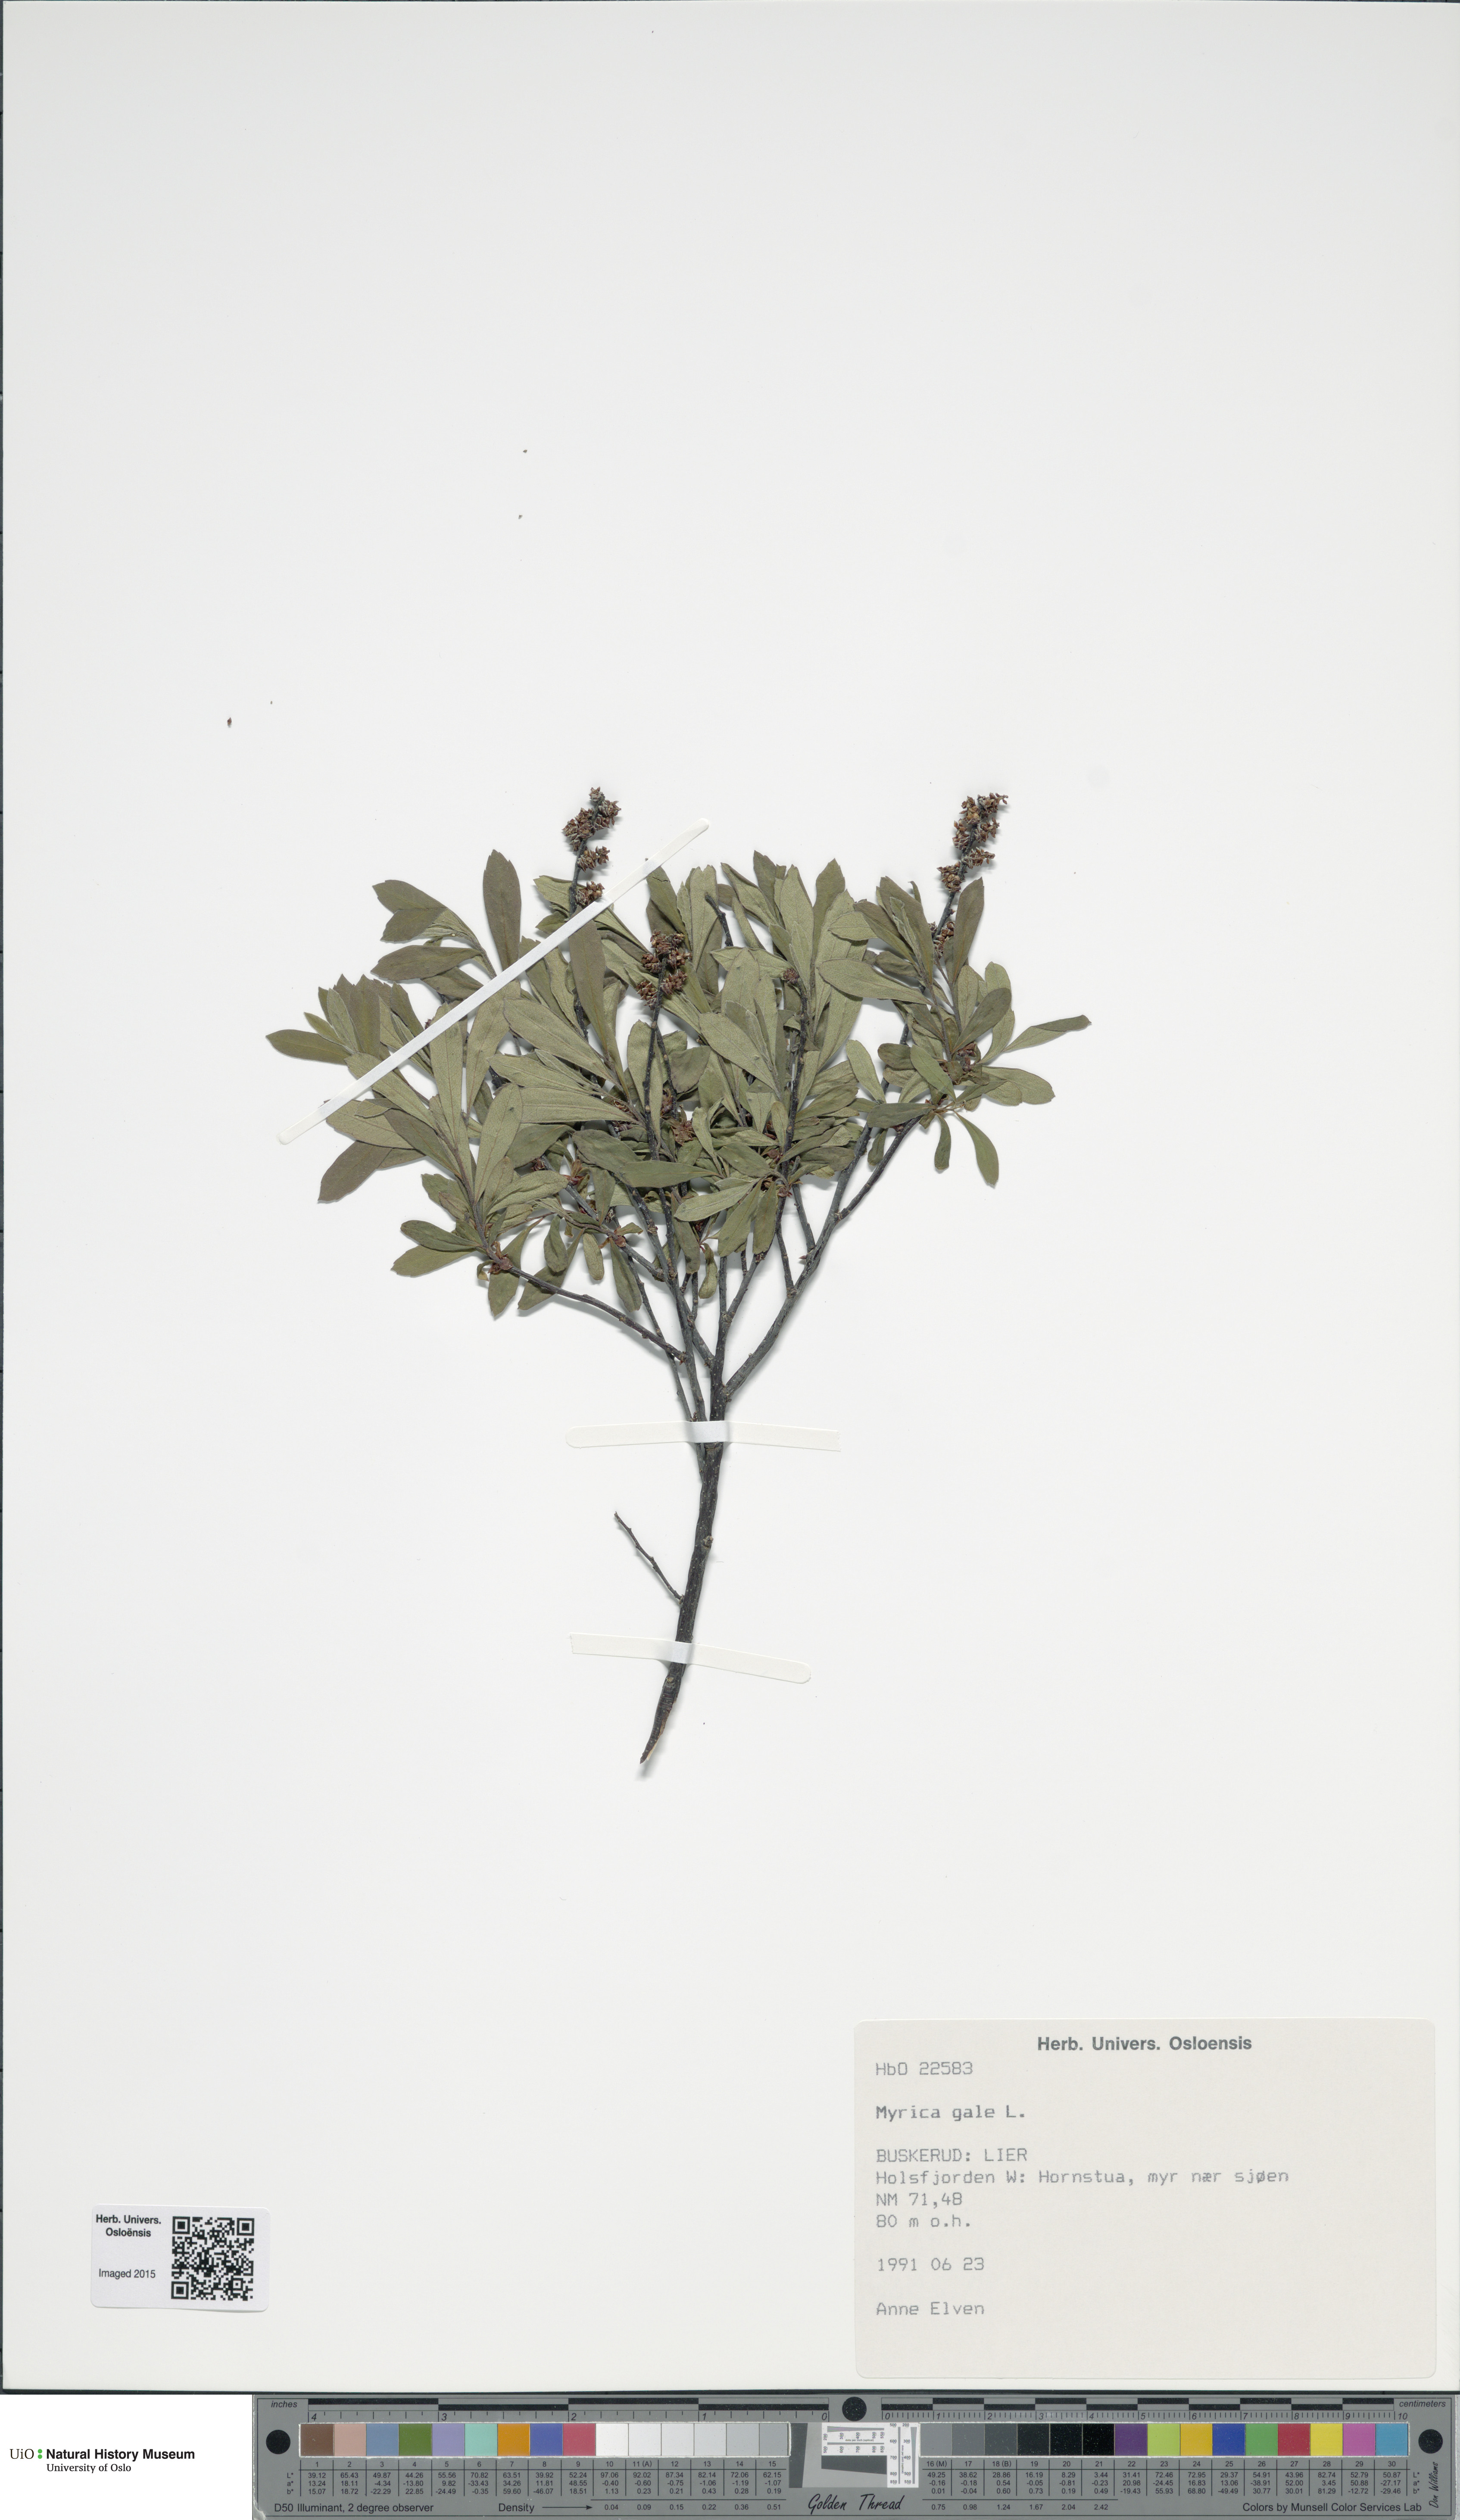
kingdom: Plantae
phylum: Tracheophyta
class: Magnoliopsida
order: Fagales
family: Myricaceae
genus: Myrica
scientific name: Myrica gale
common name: Sweet gale
